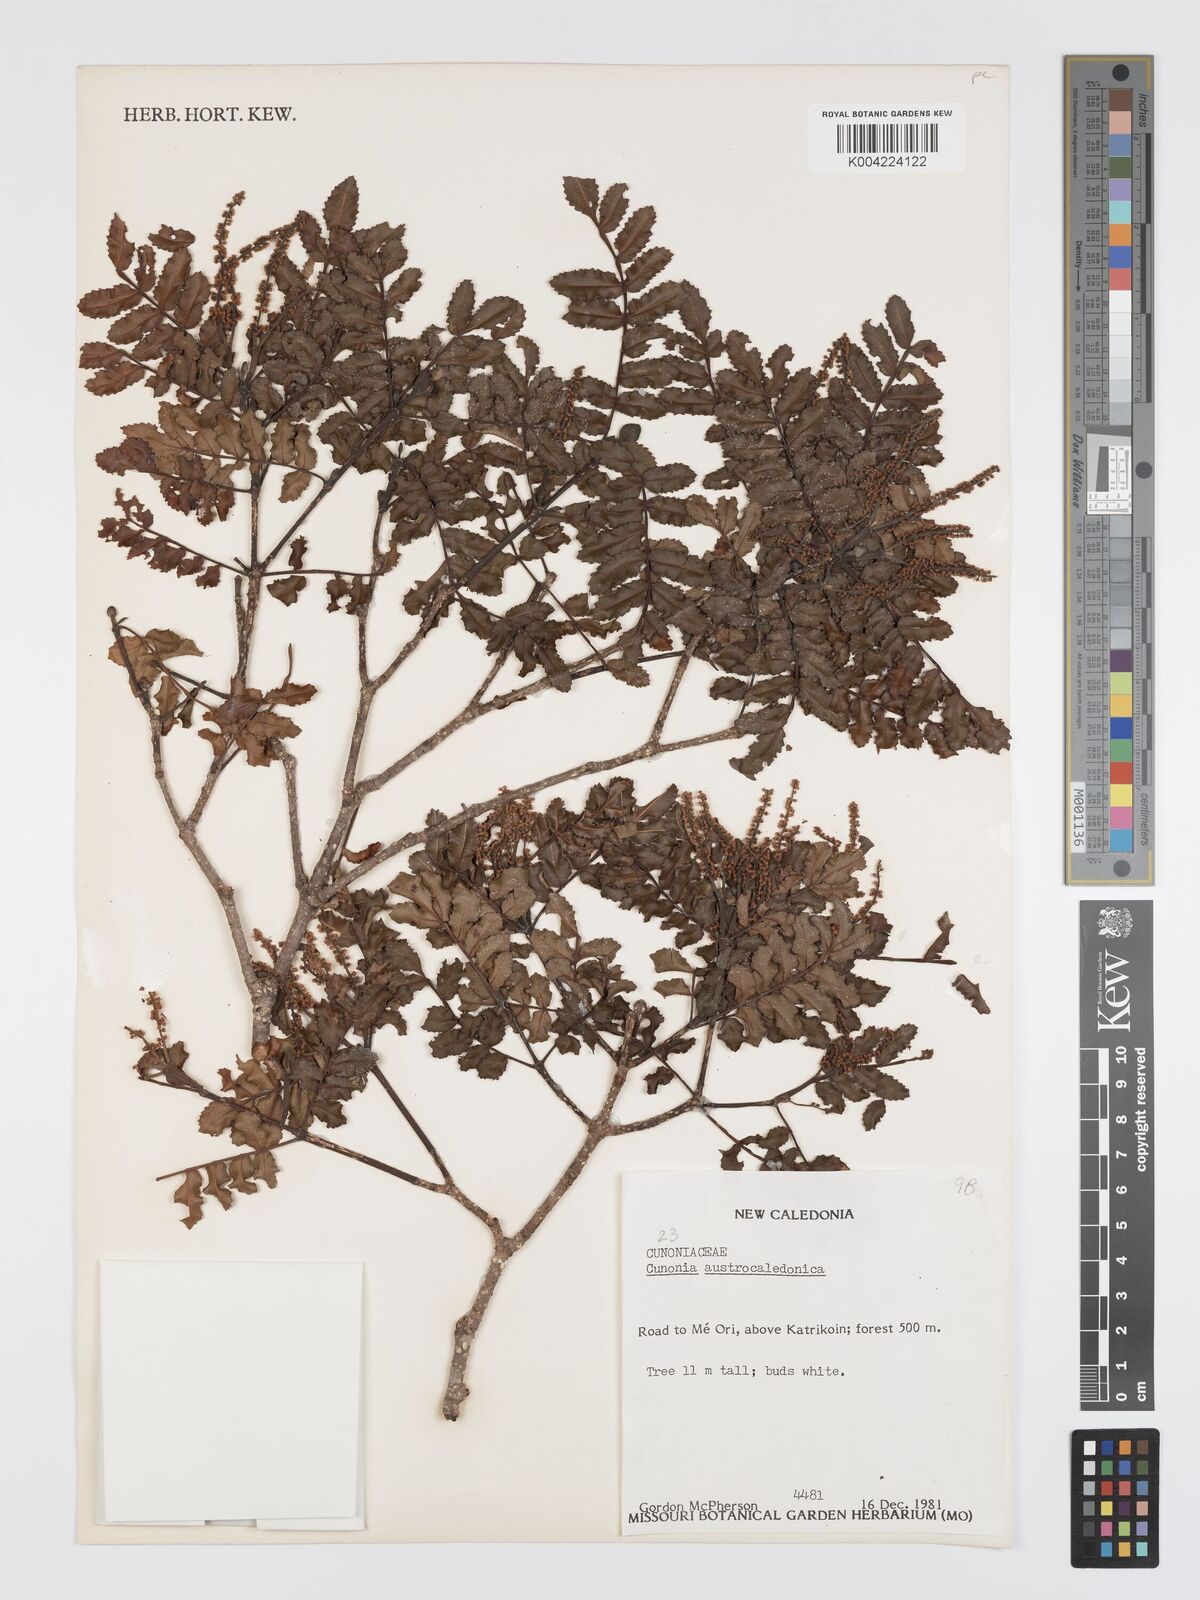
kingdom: Plantae
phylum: Tracheophyta
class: Magnoliopsida
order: Oxalidales
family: Cunoniaceae
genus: Cunonia
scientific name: Cunonia austrocaledonica
